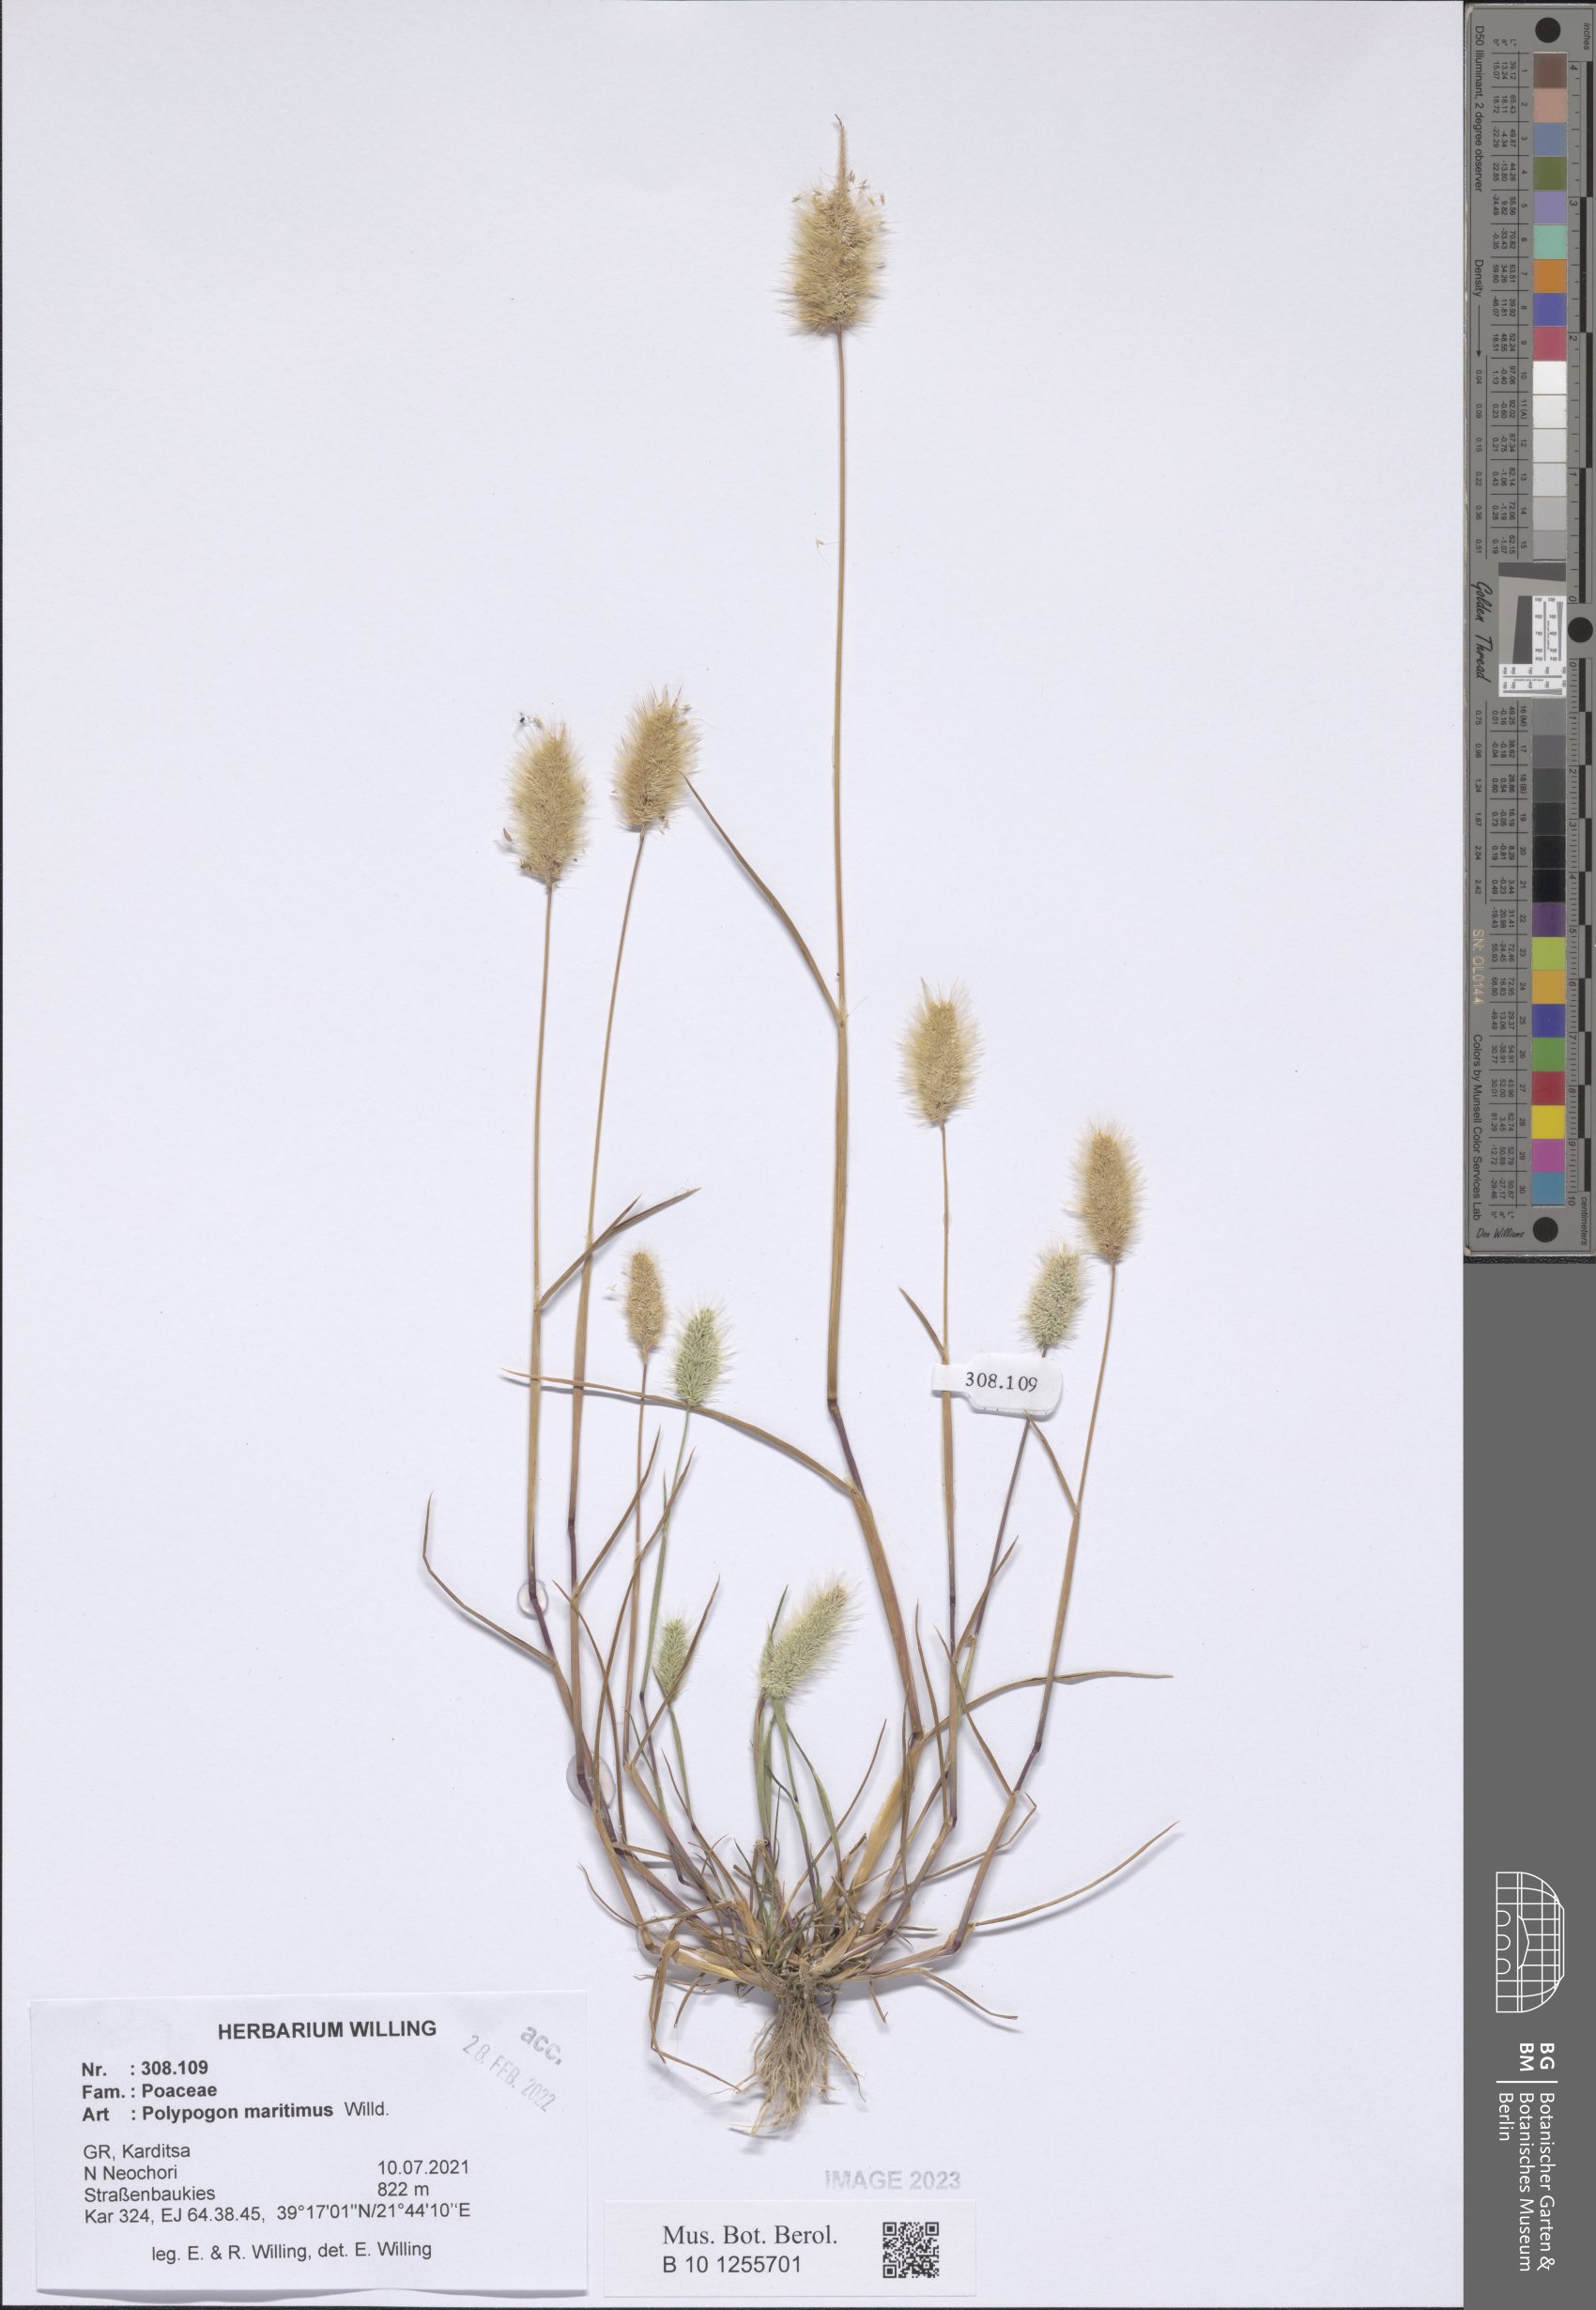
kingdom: Plantae
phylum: Tracheophyta
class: Liliopsida
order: Poales
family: Poaceae
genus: Polypogon
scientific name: Polypogon maritimus
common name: Mediterranean rabbitsfoot grass
